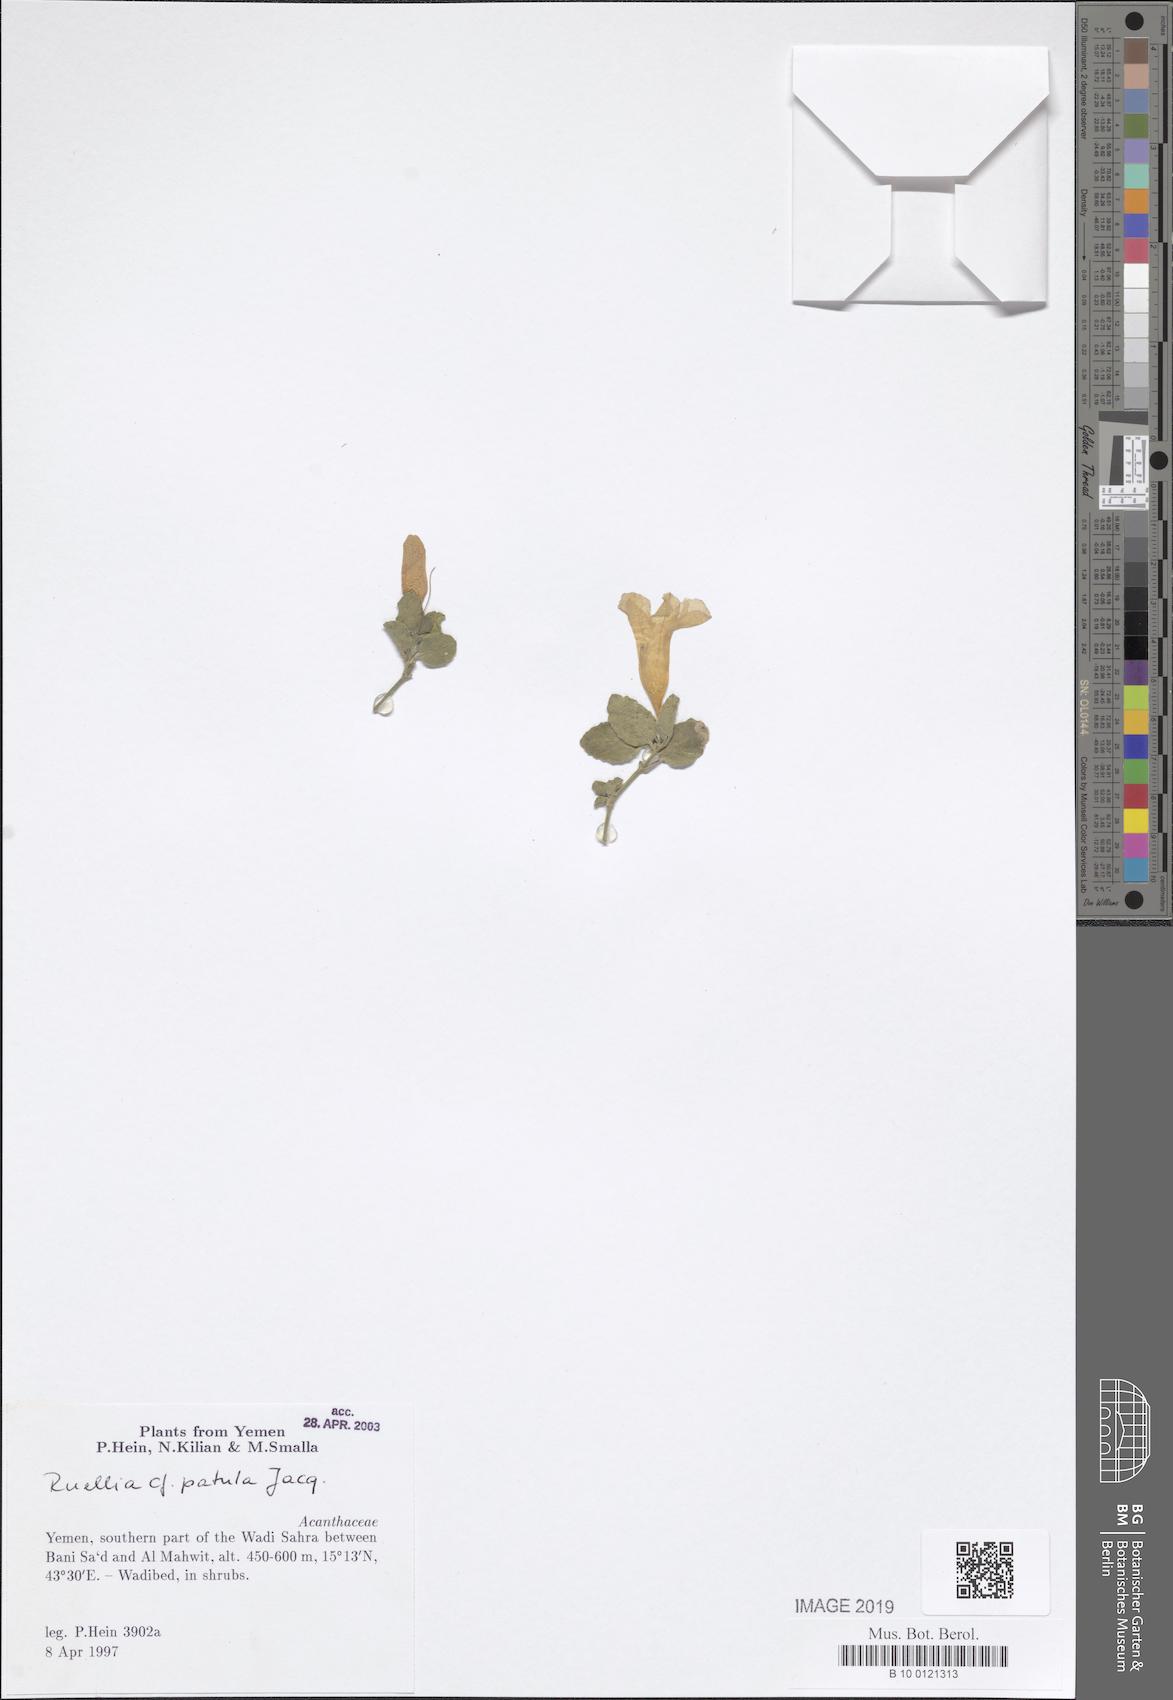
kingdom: Plantae
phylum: Tracheophyta
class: Magnoliopsida
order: Lamiales
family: Acanthaceae
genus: Ruellia
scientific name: Ruellia patula
